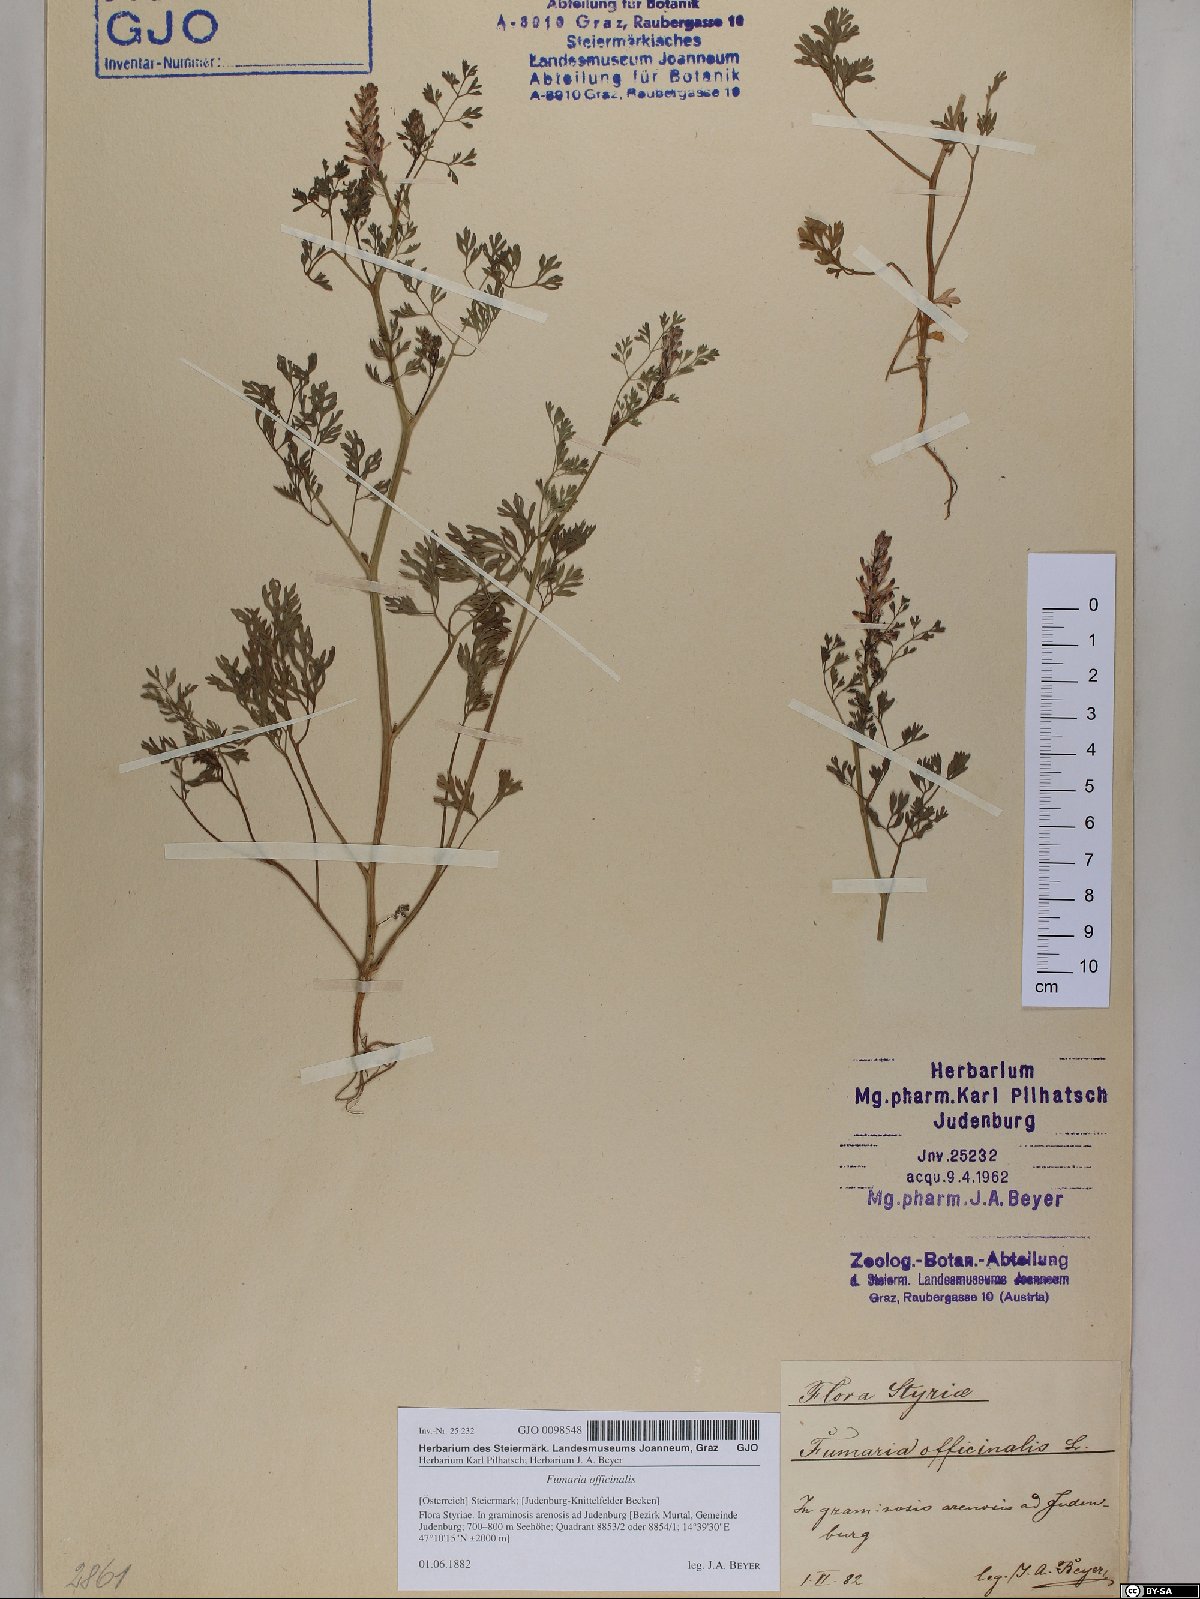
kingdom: Plantae
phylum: Tracheophyta
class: Magnoliopsida
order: Ranunculales
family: Papaveraceae
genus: Fumaria
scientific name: Fumaria officinalis
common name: Common fumitory
